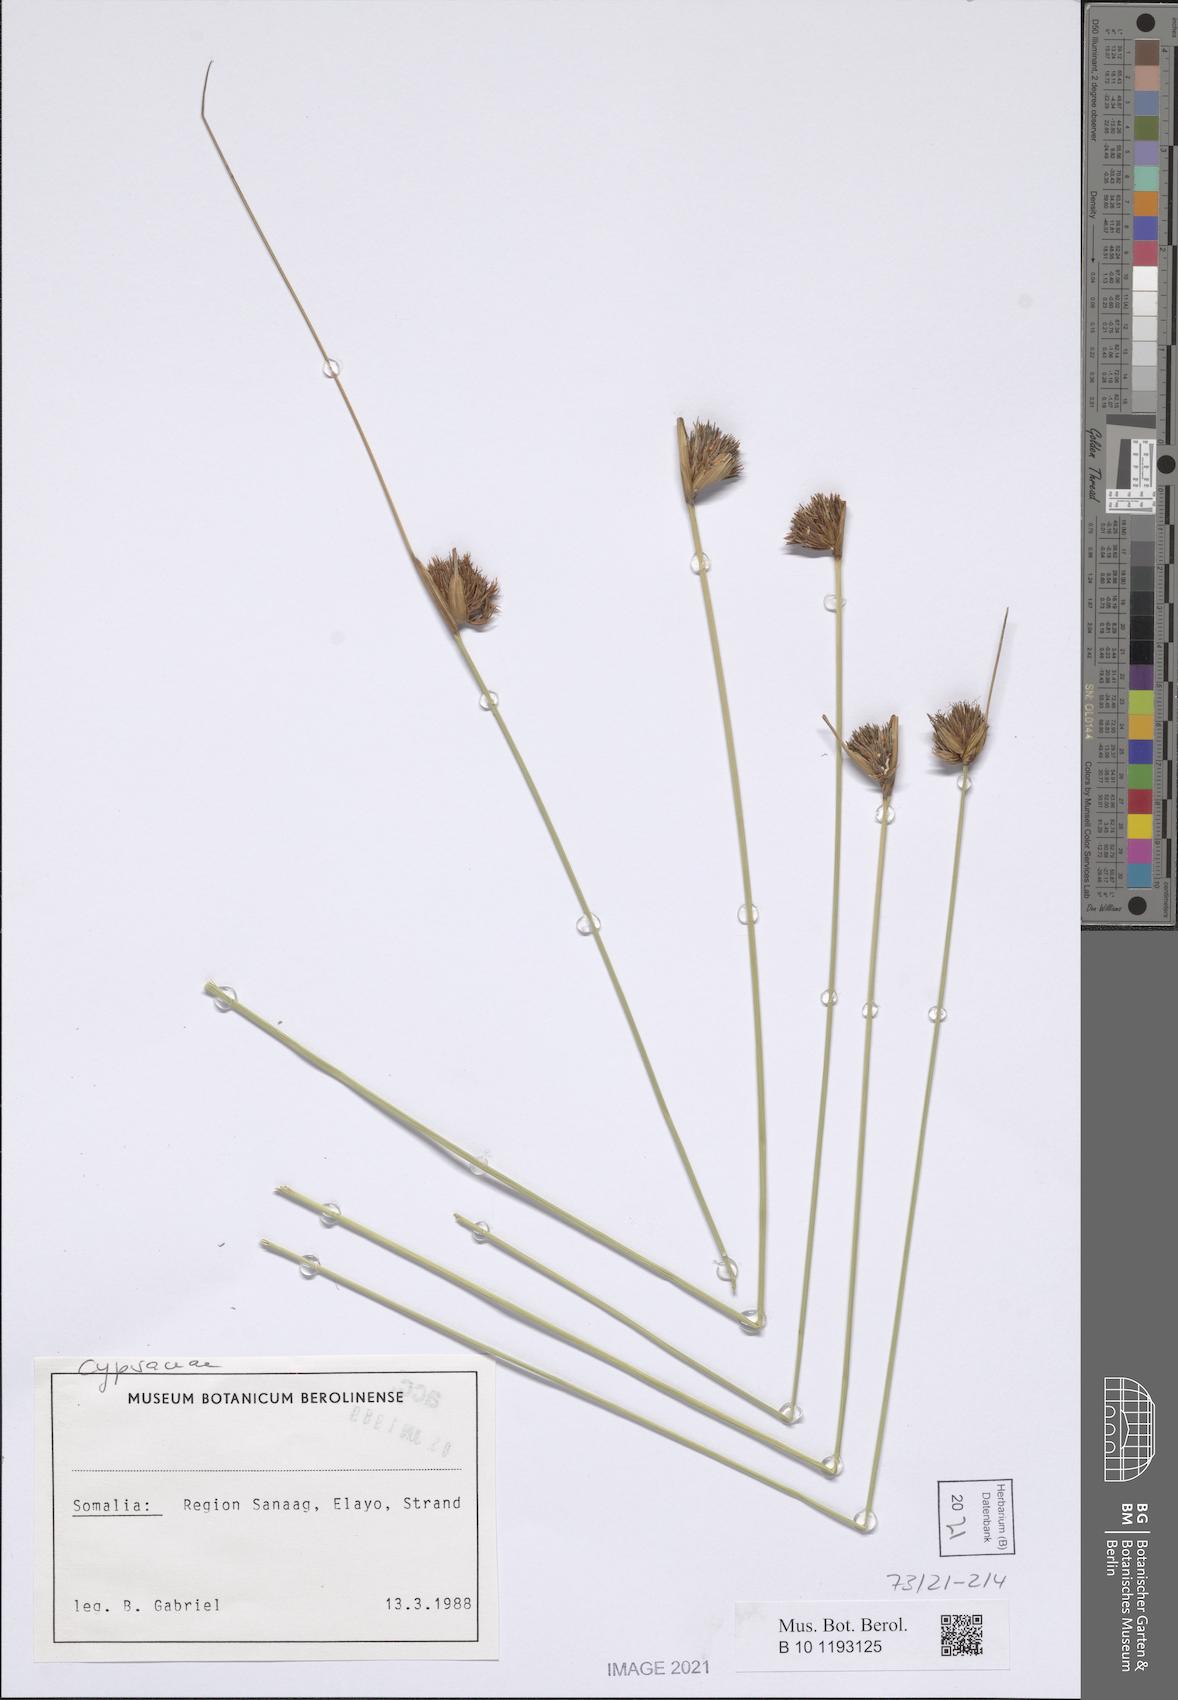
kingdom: Plantae
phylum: Tracheophyta
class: Liliopsida
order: Poales
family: Cyperaceae
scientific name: Cyperaceae
